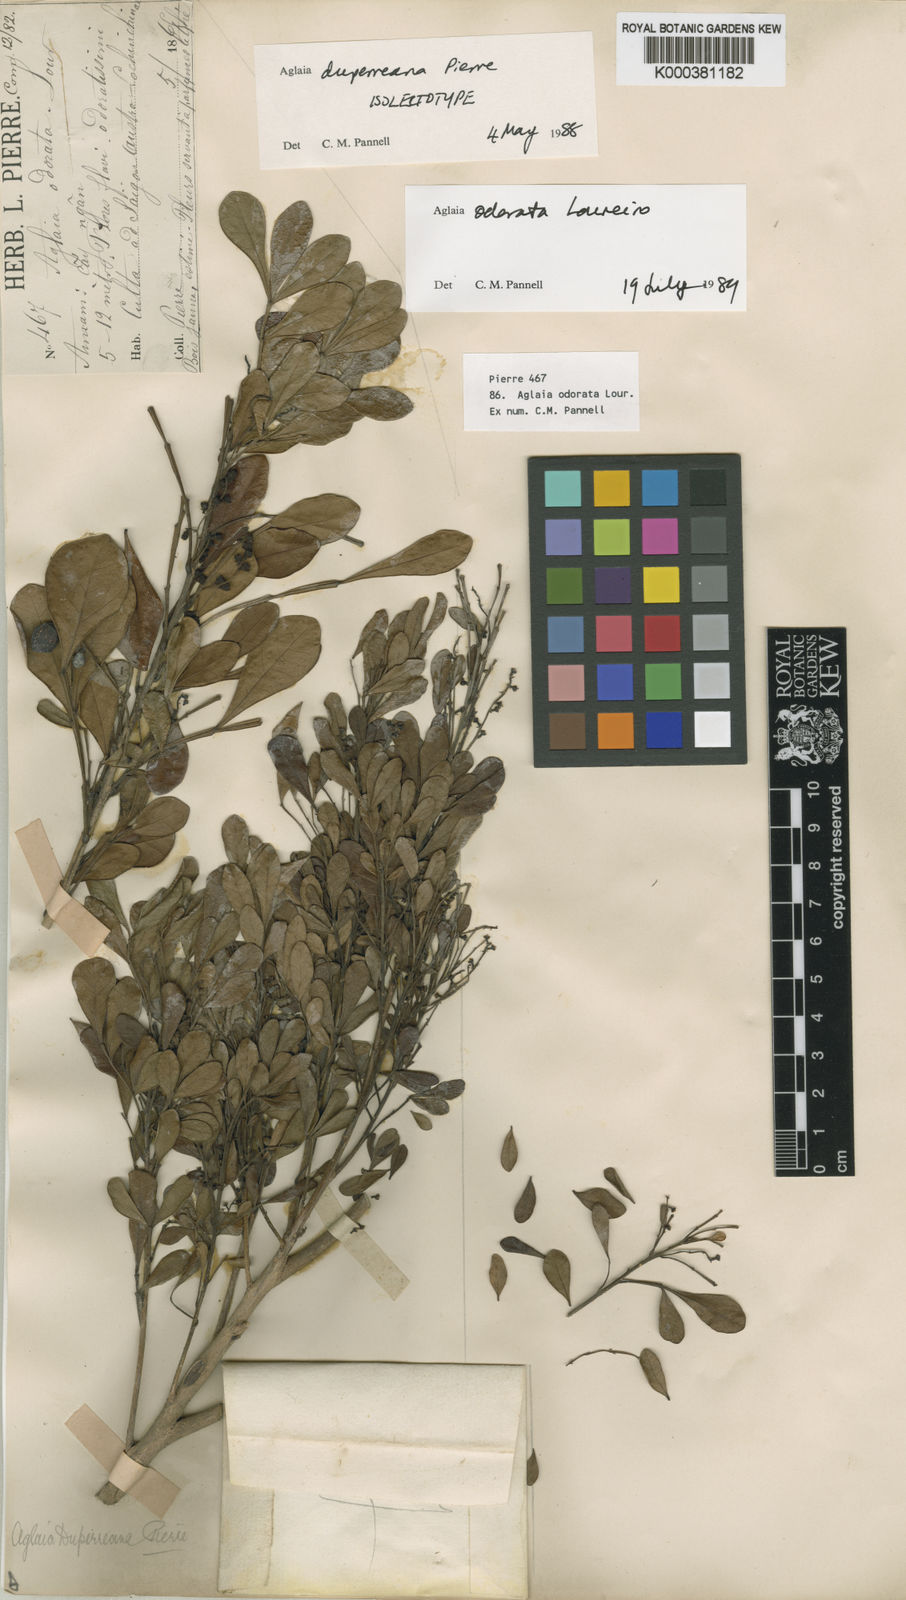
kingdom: Plantae
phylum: Tracheophyta
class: Magnoliopsida
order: Sapindales
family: Meliaceae
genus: Aglaia
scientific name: Aglaia odorata
